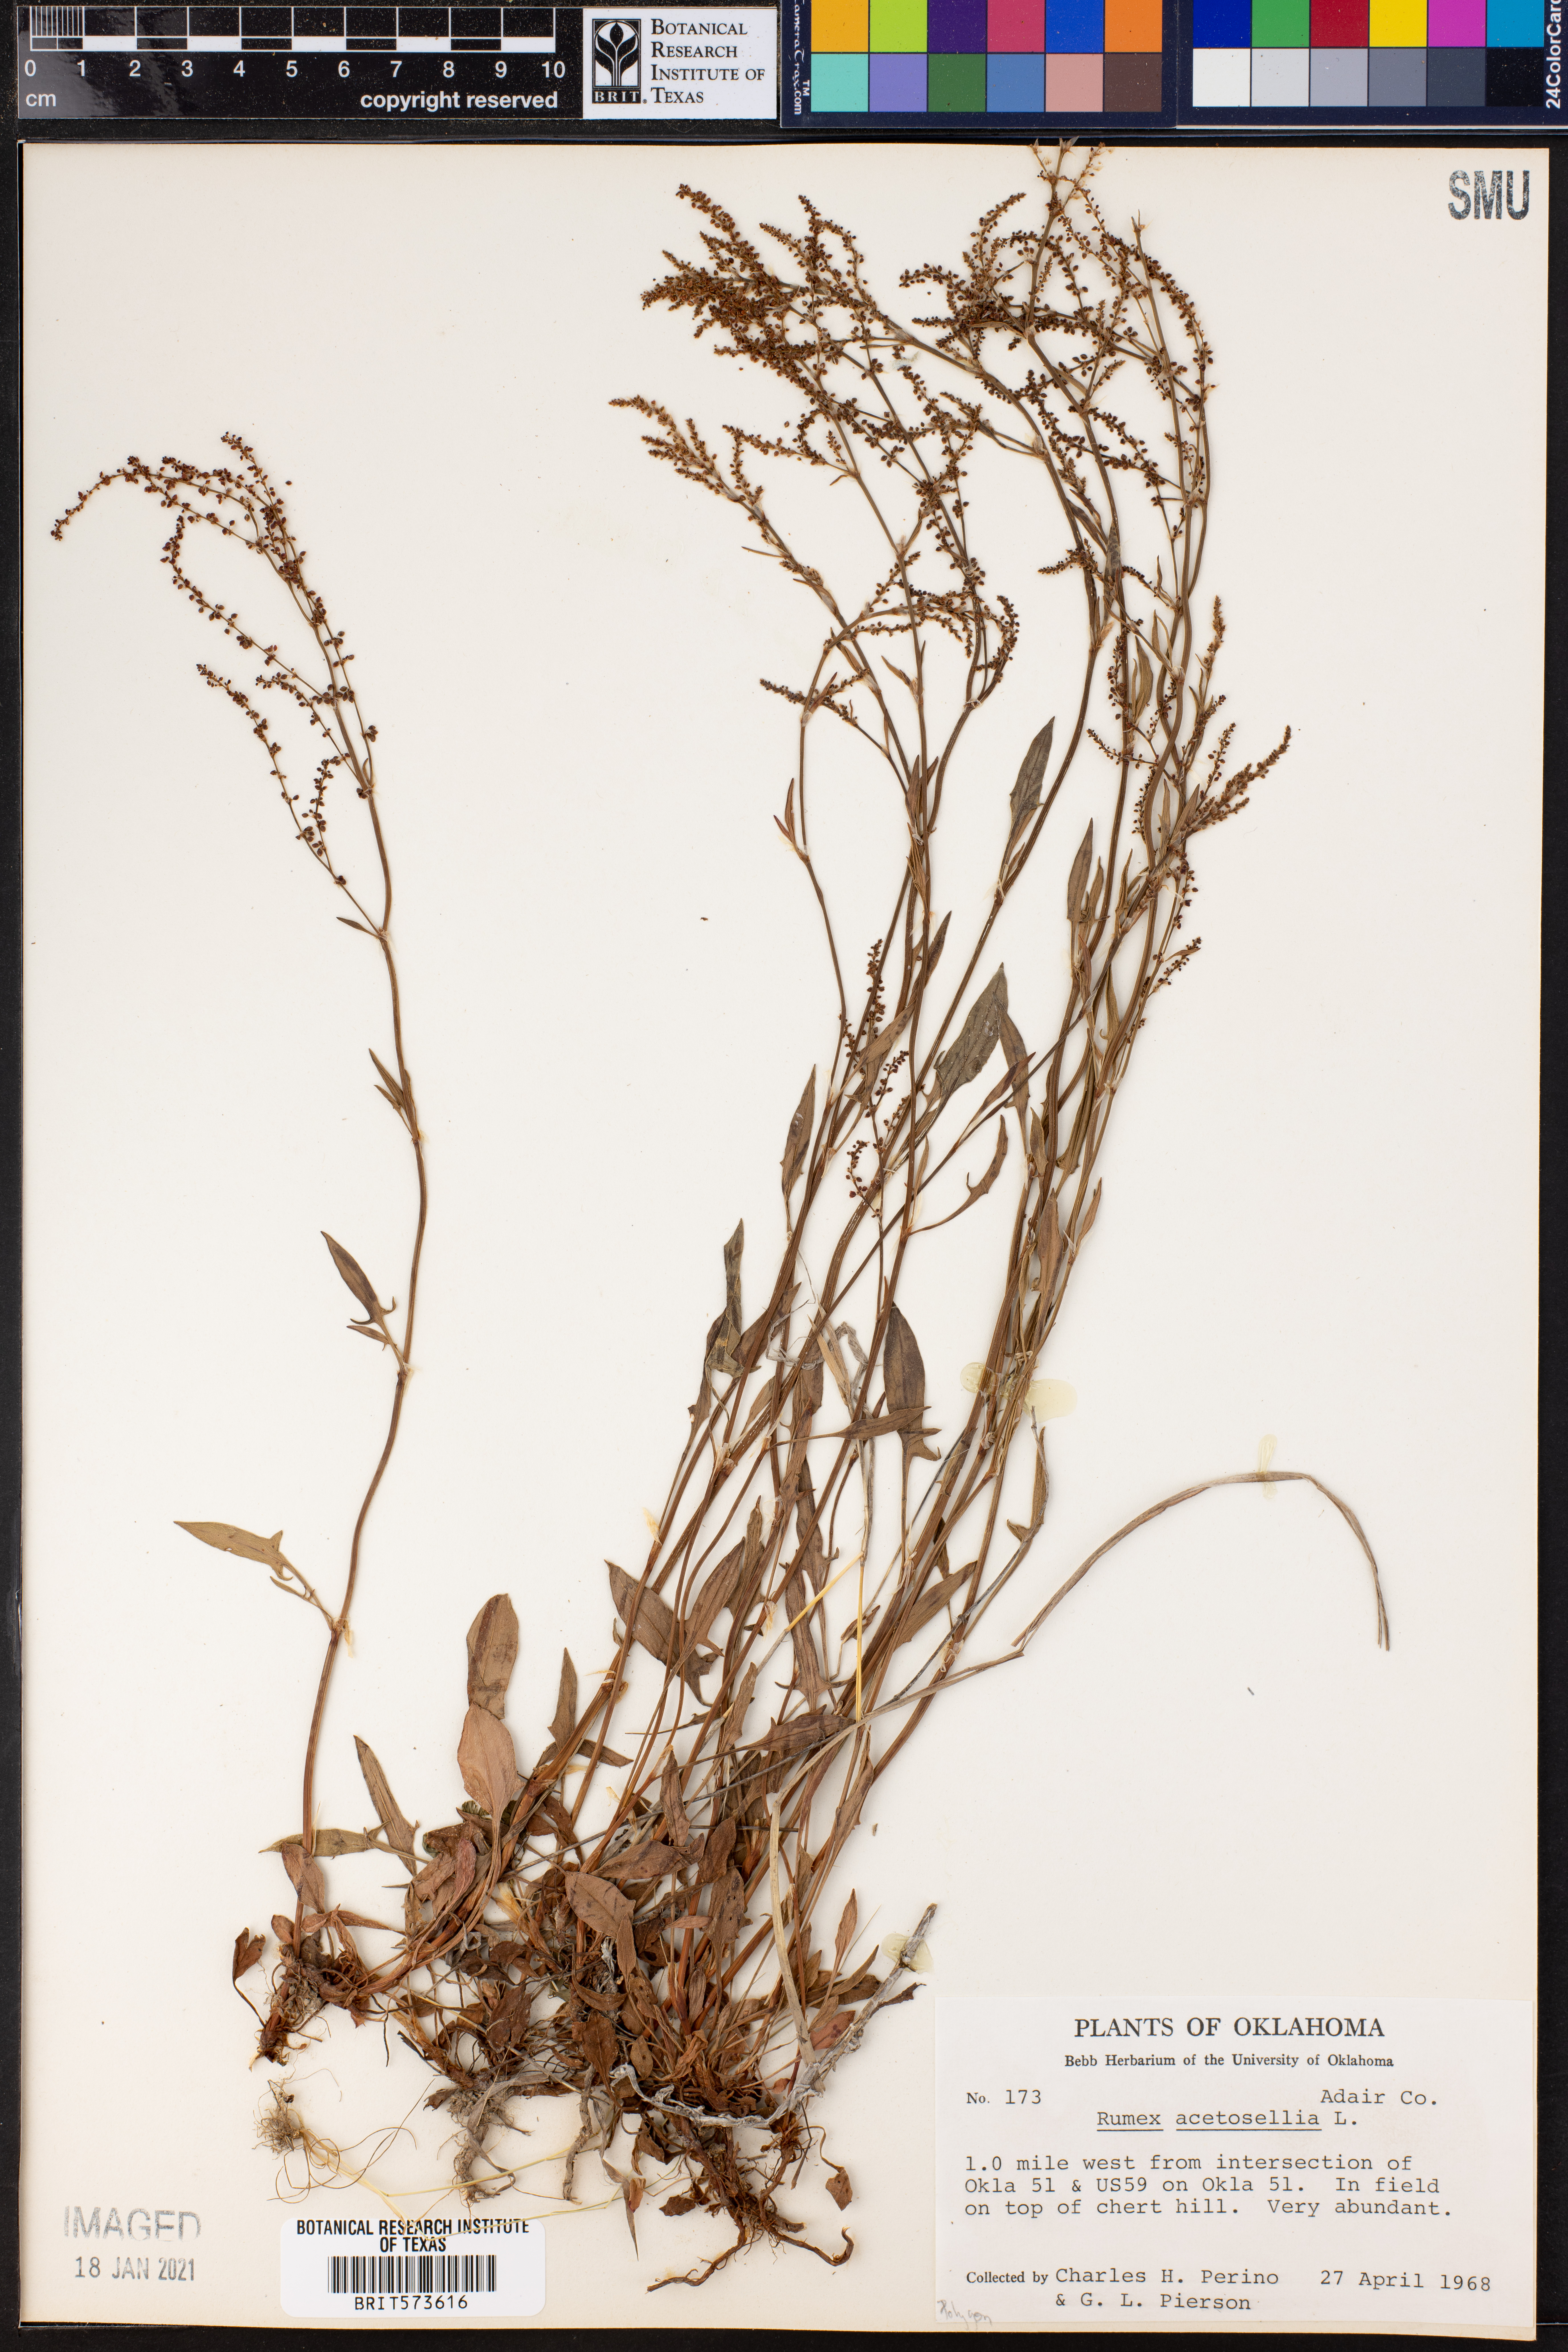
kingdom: Plantae
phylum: Tracheophyta
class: Magnoliopsida
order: Caryophyllales
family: Polygonaceae
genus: Rumex
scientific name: Rumex acetosella
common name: Common sheep sorrel
